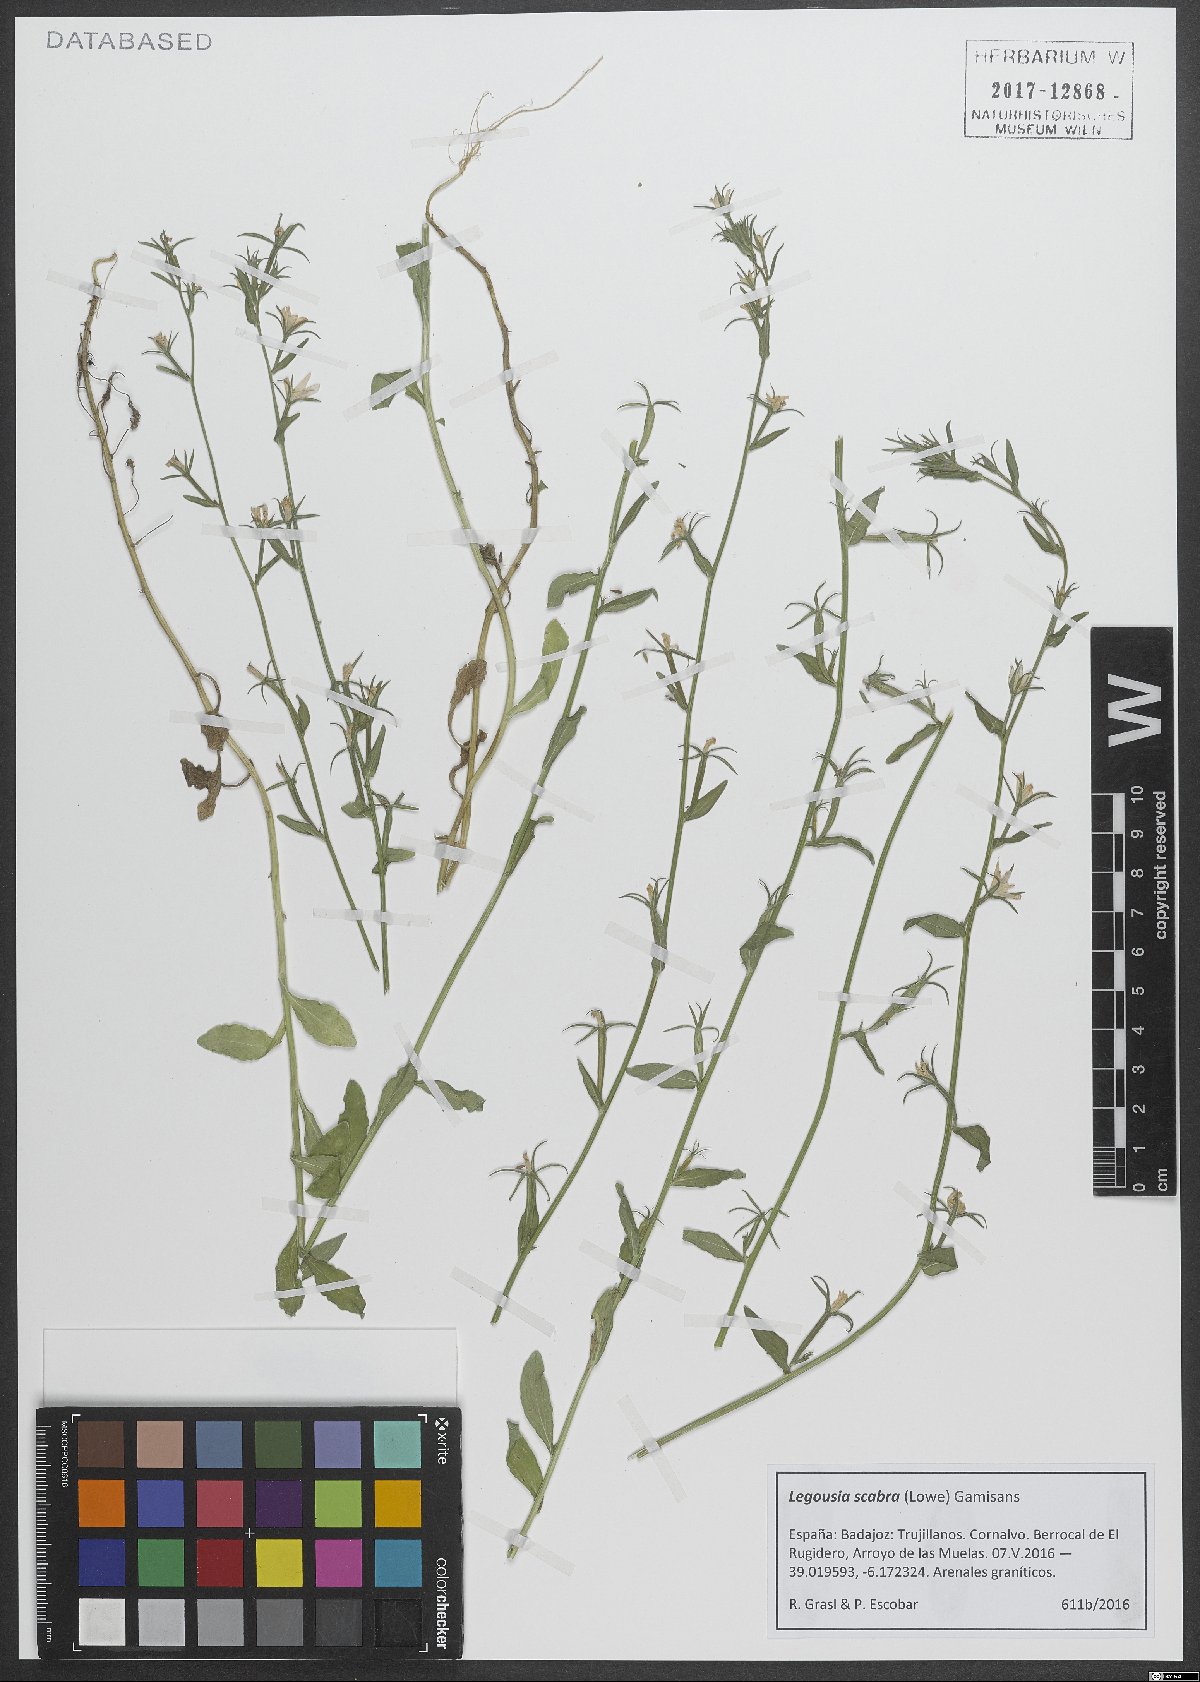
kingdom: Plantae
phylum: Tracheophyta
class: Magnoliopsida
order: Asterales
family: Campanulaceae
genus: Legousia
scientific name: Legousia falcata
